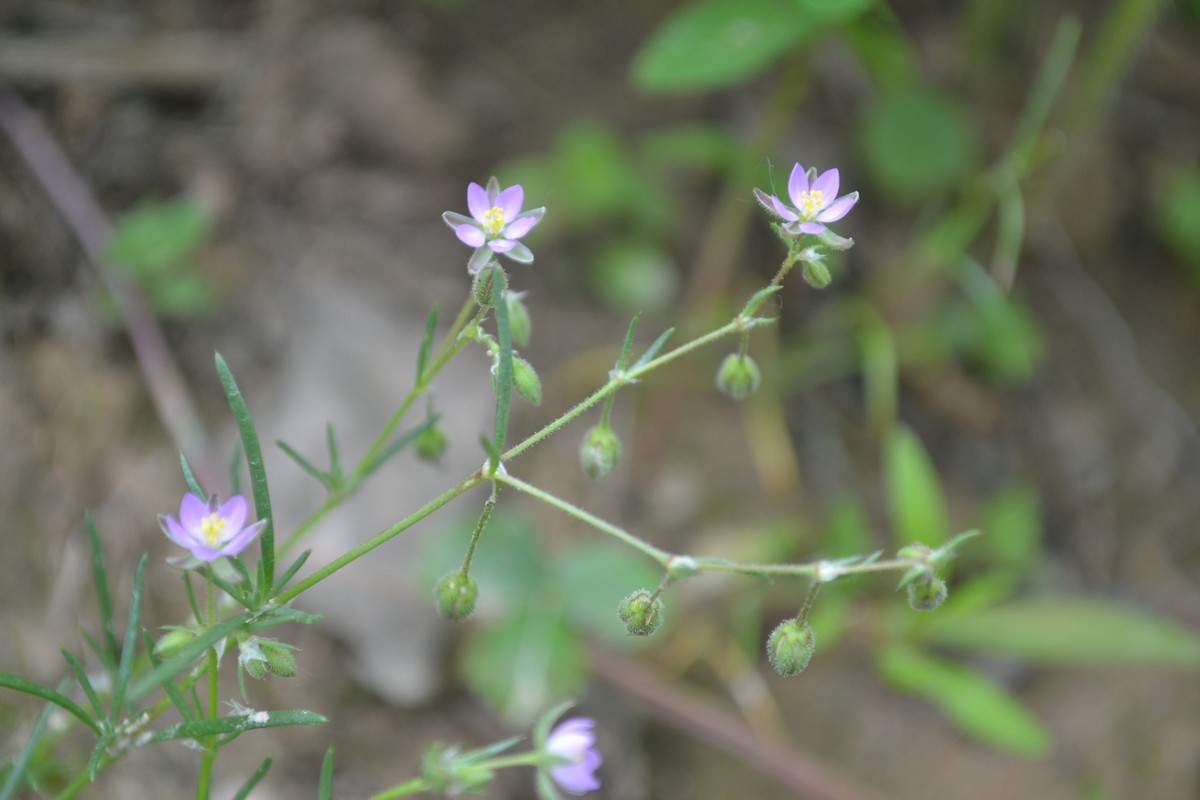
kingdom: Plantae
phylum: Tracheophyta
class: Magnoliopsida
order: Myrtales
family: Onagraceae
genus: Epilobium
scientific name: Epilobium roseum
